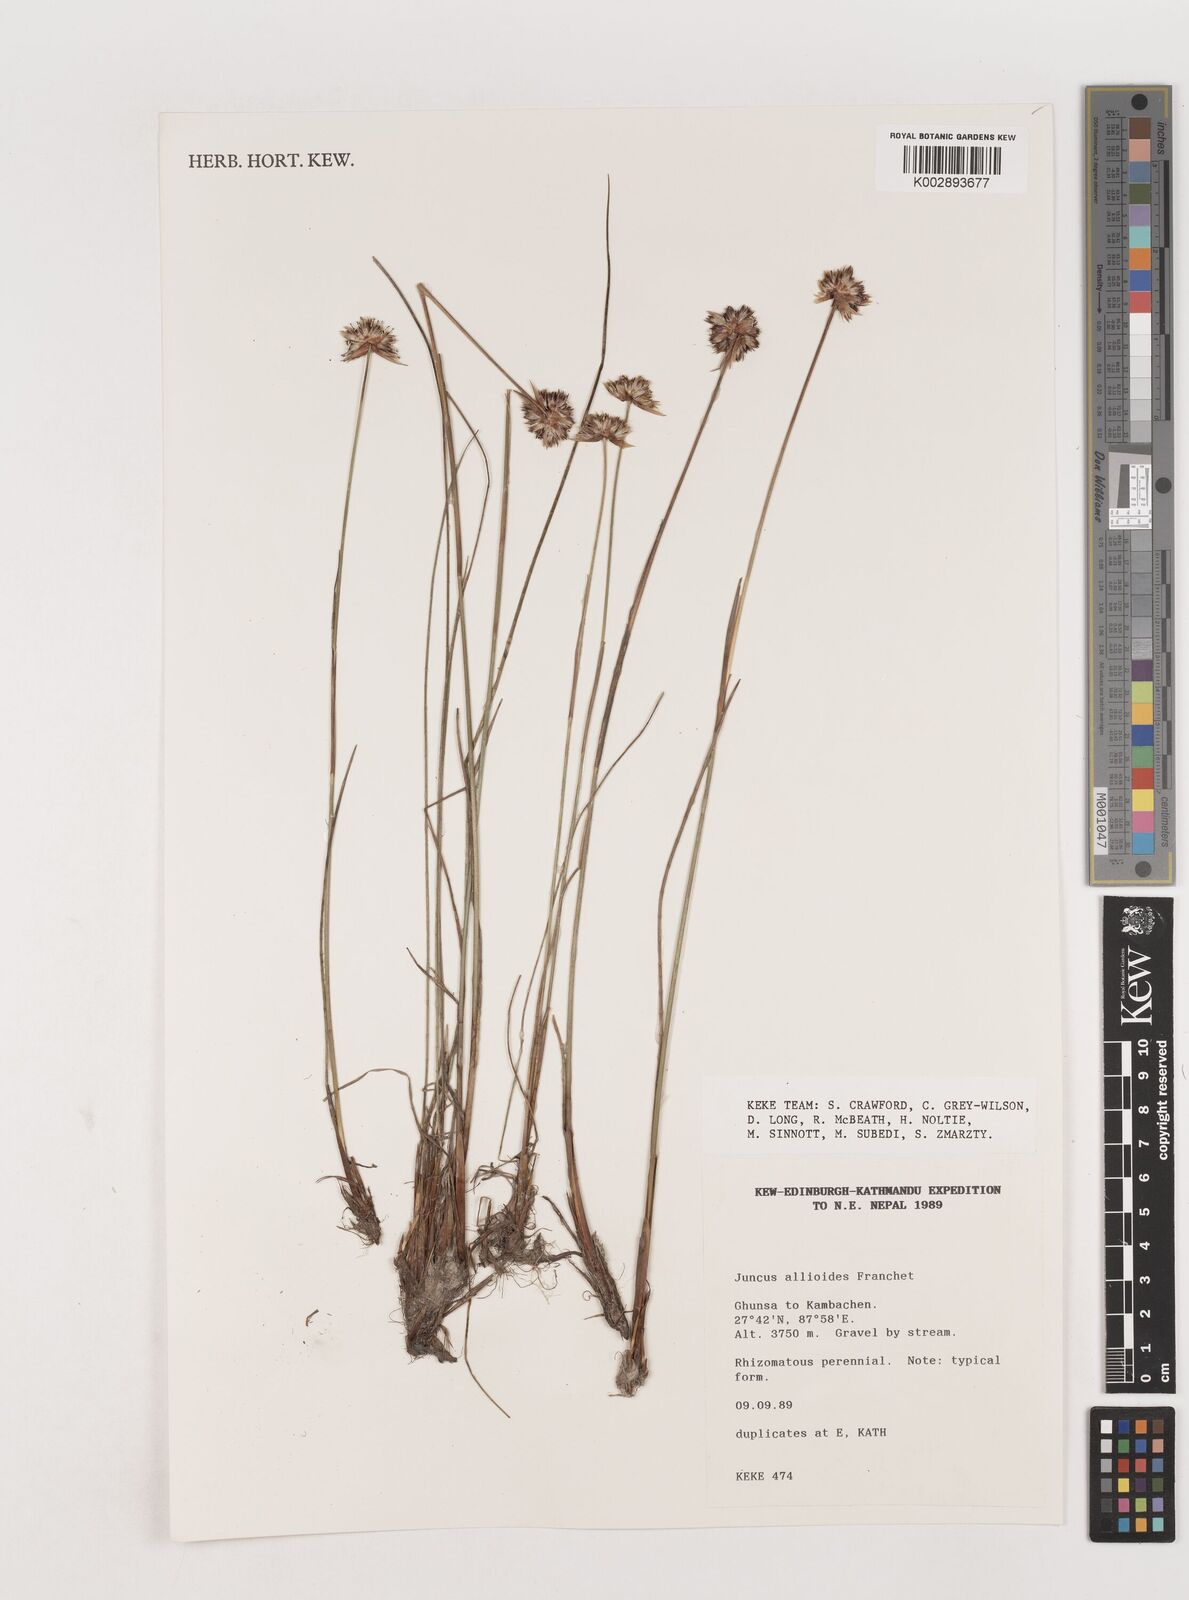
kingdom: Plantae
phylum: Tracheophyta
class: Liliopsida
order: Poales
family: Juncaceae
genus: Juncus
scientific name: Juncus allioides
